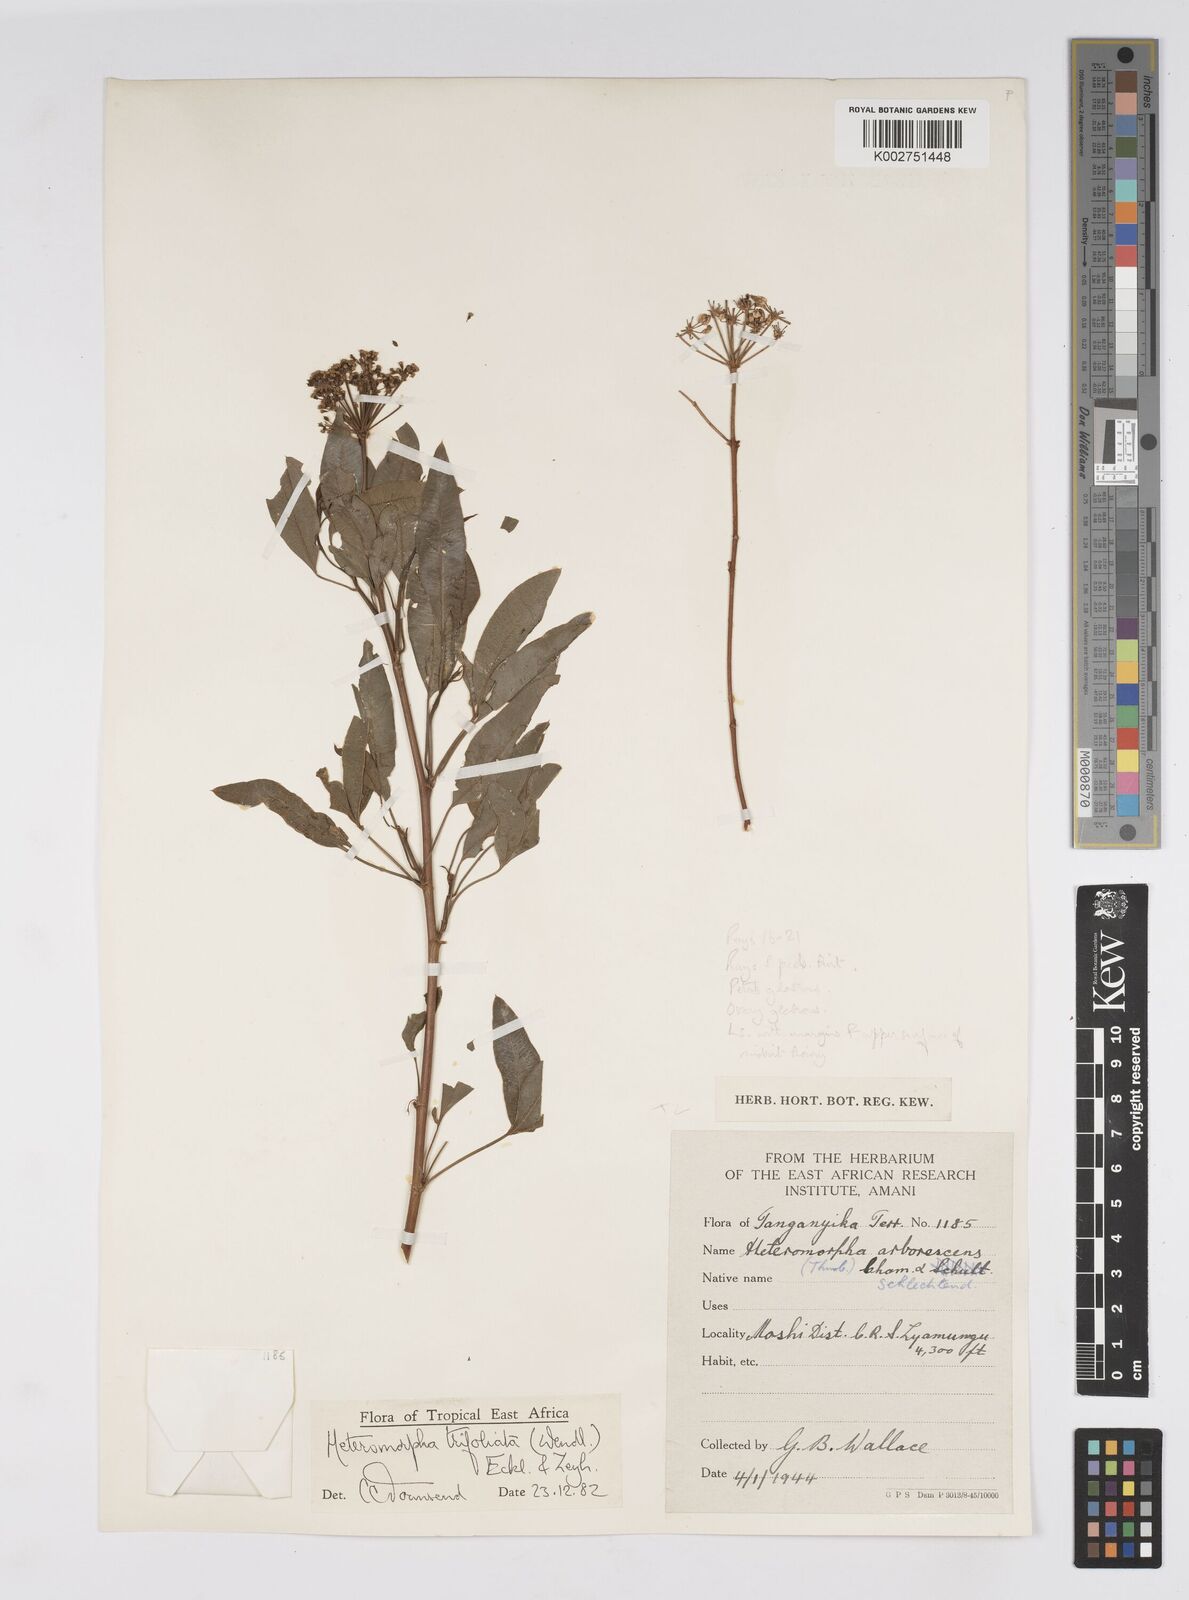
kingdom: Plantae
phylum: Tracheophyta
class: Magnoliopsida
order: Apiales
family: Apiaceae
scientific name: Apiaceae
